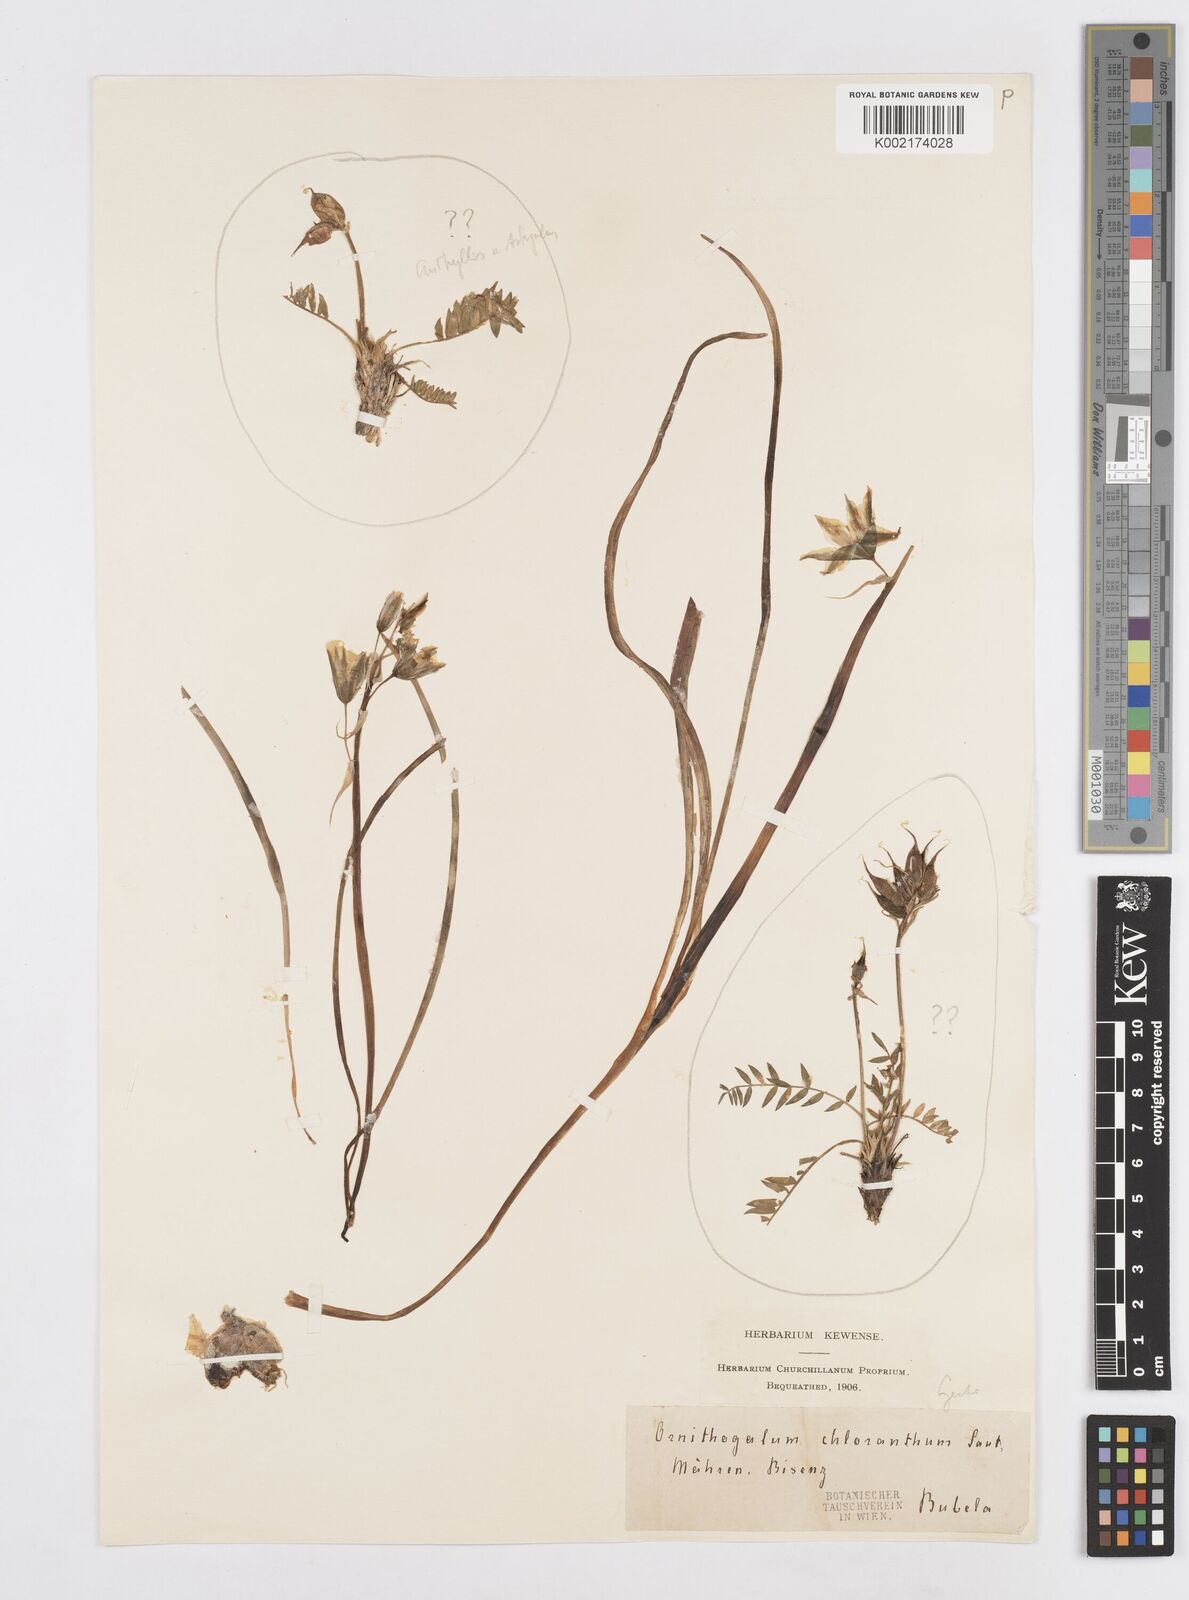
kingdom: Plantae
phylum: Tracheophyta
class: Liliopsida
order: Asparagales
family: Asparagaceae
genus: Ornithogalum
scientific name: Ornithogalum boucheanum
